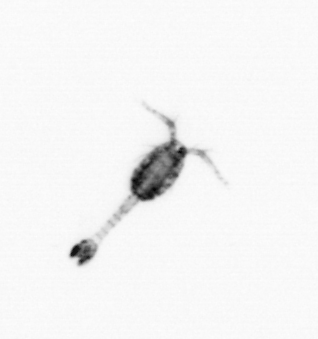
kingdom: Animalia
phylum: Arthropoda
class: Copepoda
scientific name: Copepoda
